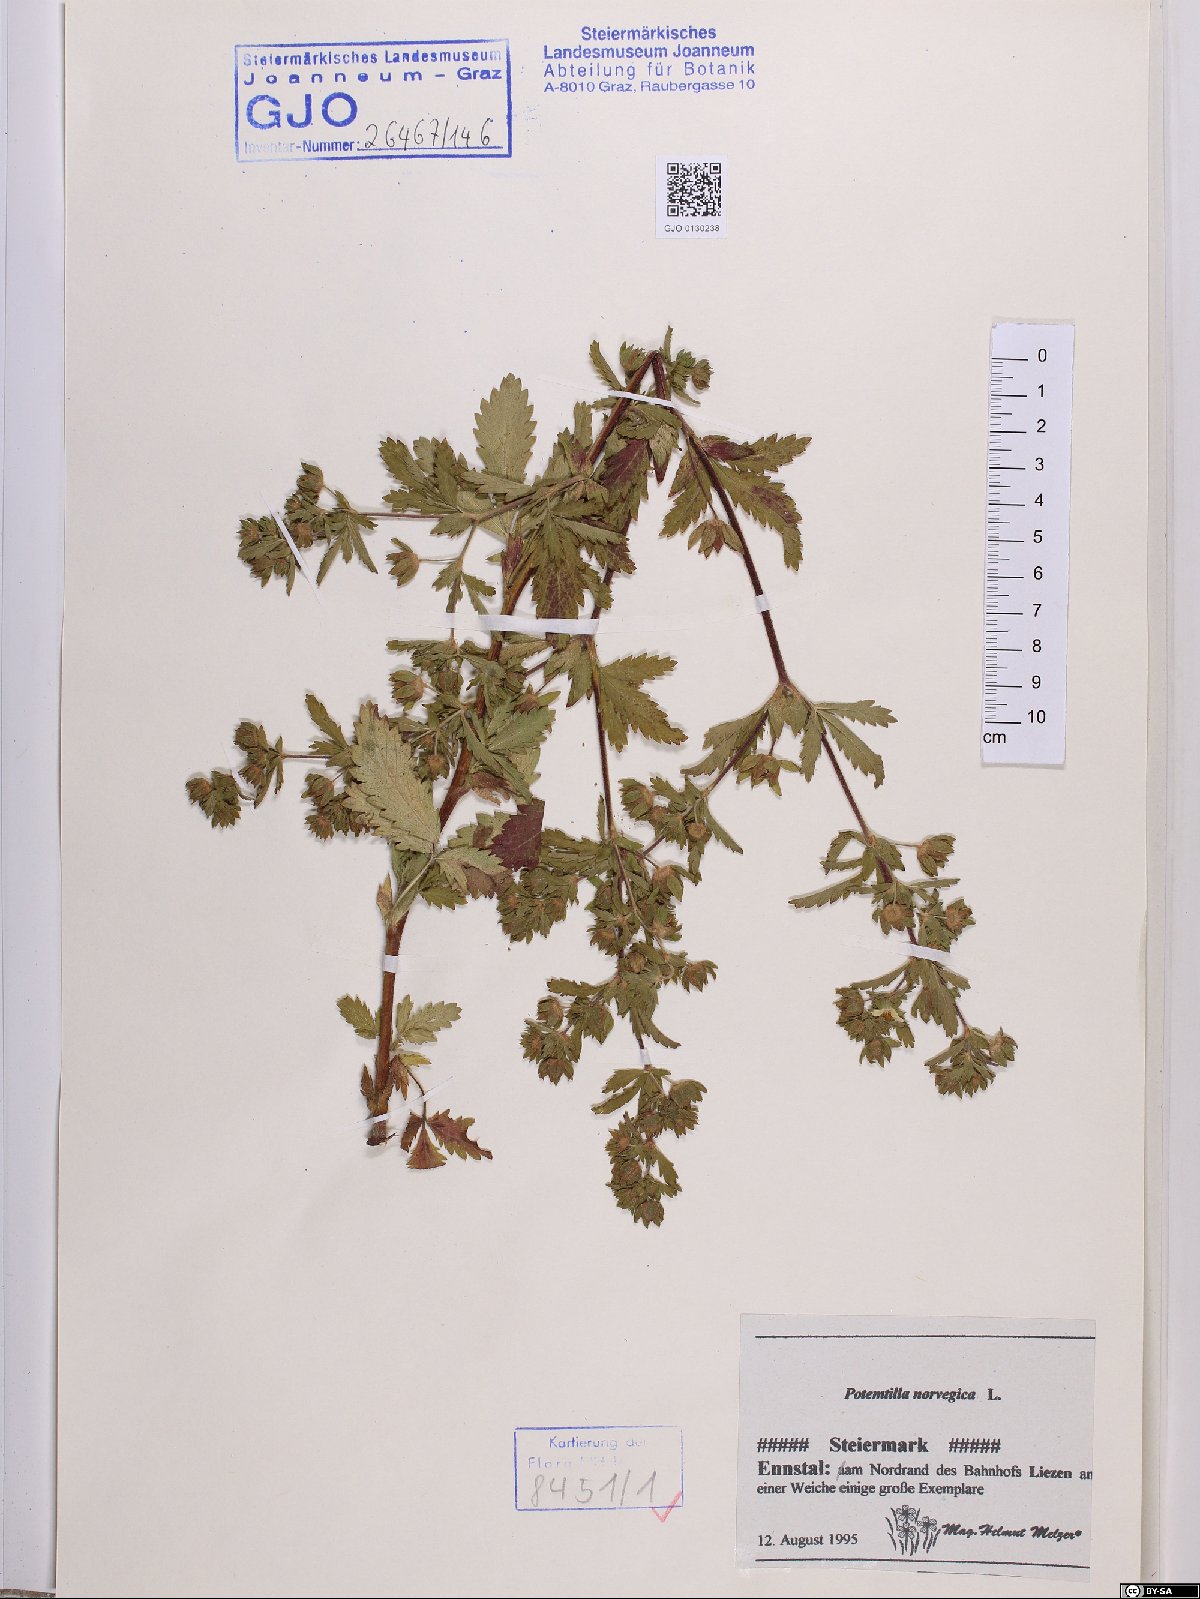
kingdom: Plantae
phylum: Tracheophyta
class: Magnoliopsida
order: Rosales
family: Rosaceae
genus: Potentilla
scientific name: Potentilla norvegica
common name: Ternate-leaved cinquefoil
